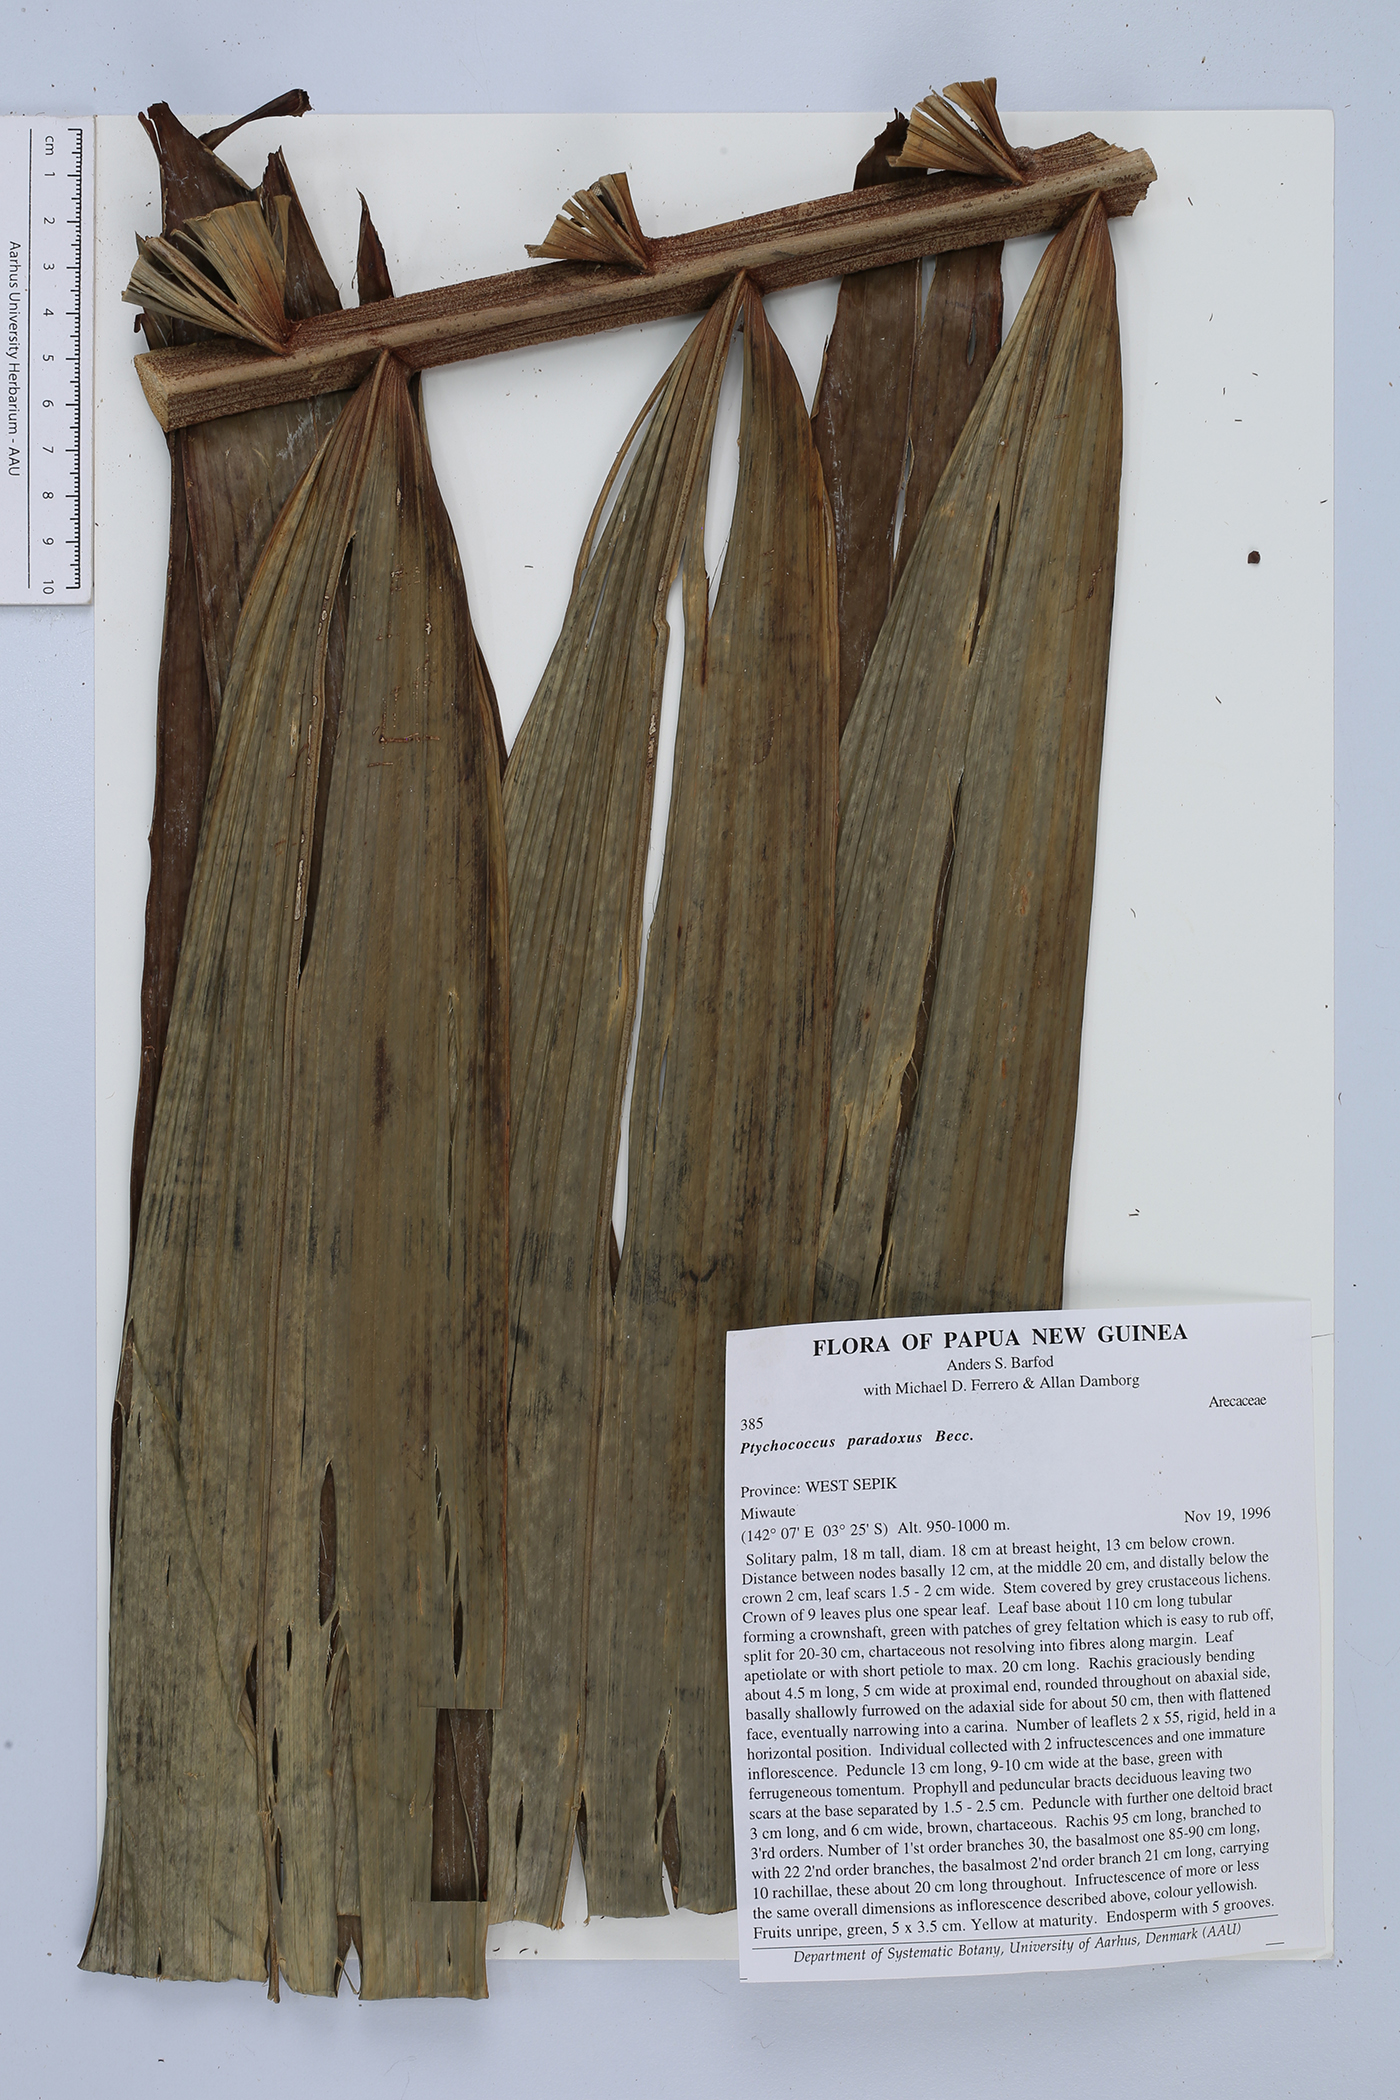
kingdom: Plantae
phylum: Tracheophyta
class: Liliopsida
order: Arecales
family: Arecaceae
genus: Ptychococcus
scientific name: Ptychococcus paradoxus
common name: Wrinkled-fruit palm
